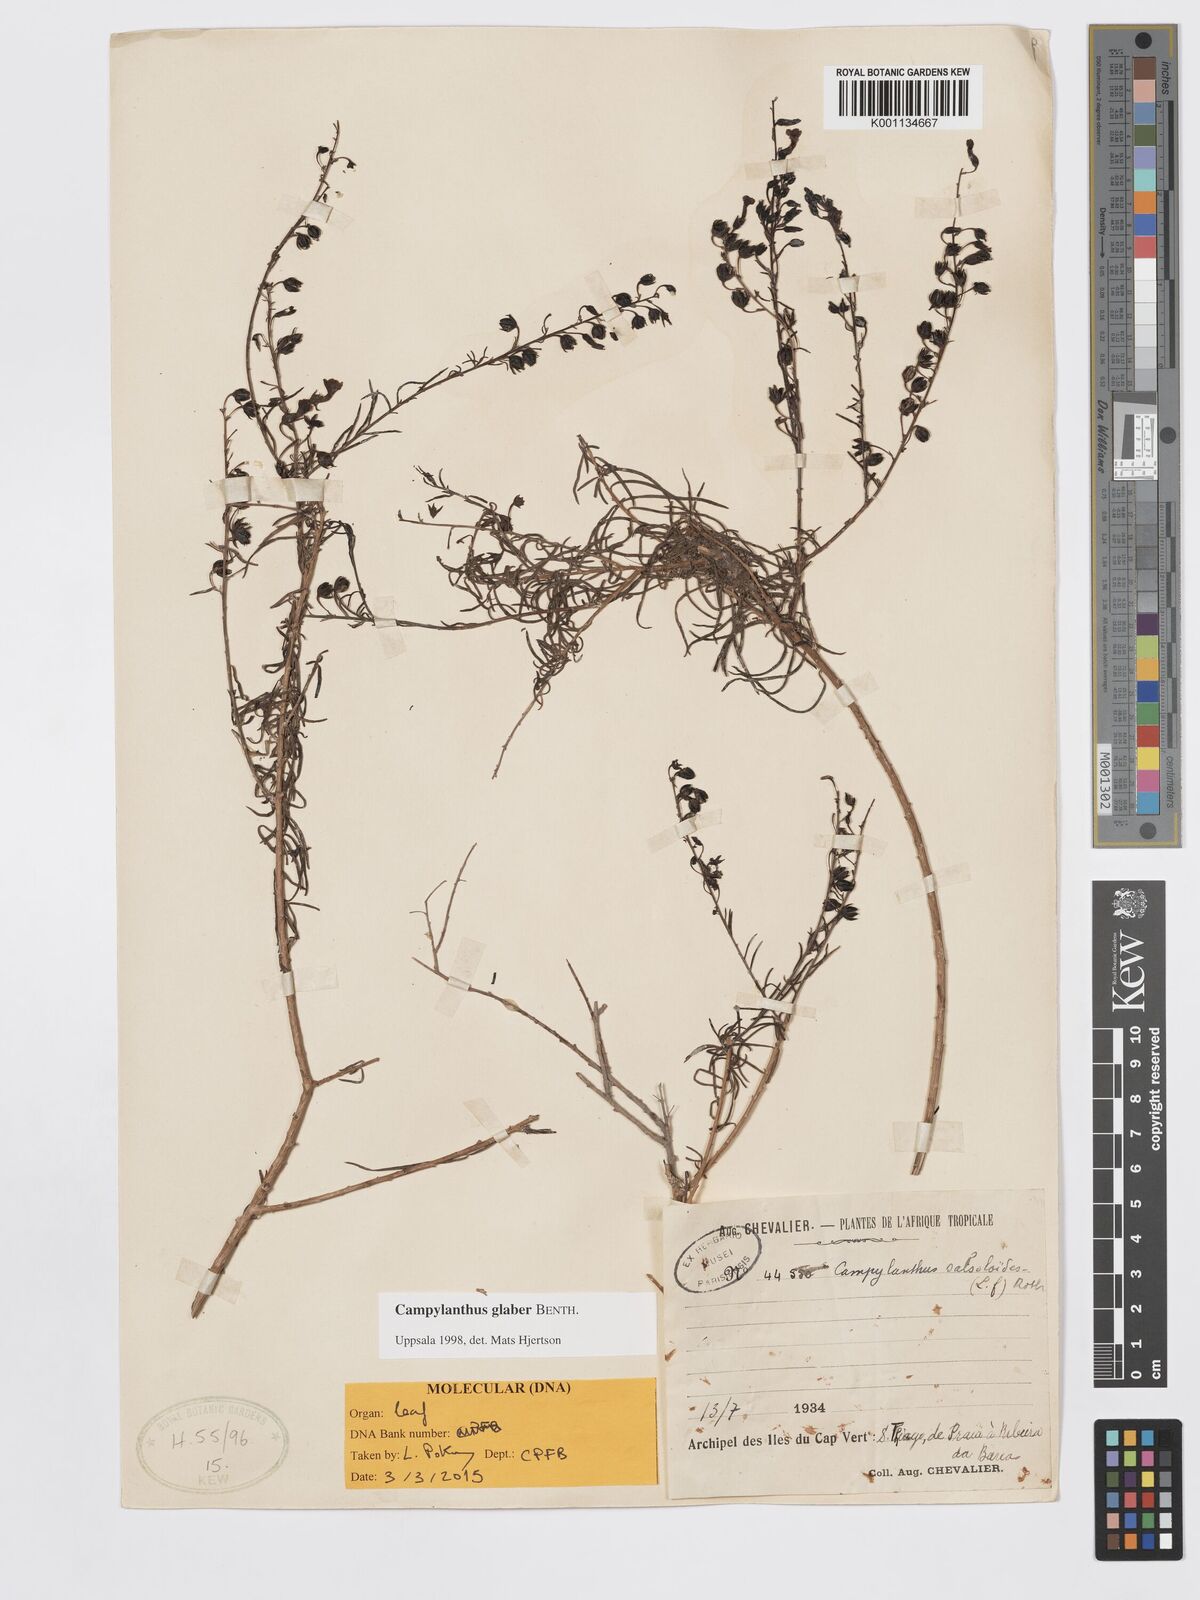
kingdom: Plantae
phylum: Tracheophyta
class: Magnoliopsida
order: Lamiales
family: Plantaginaceae
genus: Campylanthus
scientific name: Campylanthus glaber
